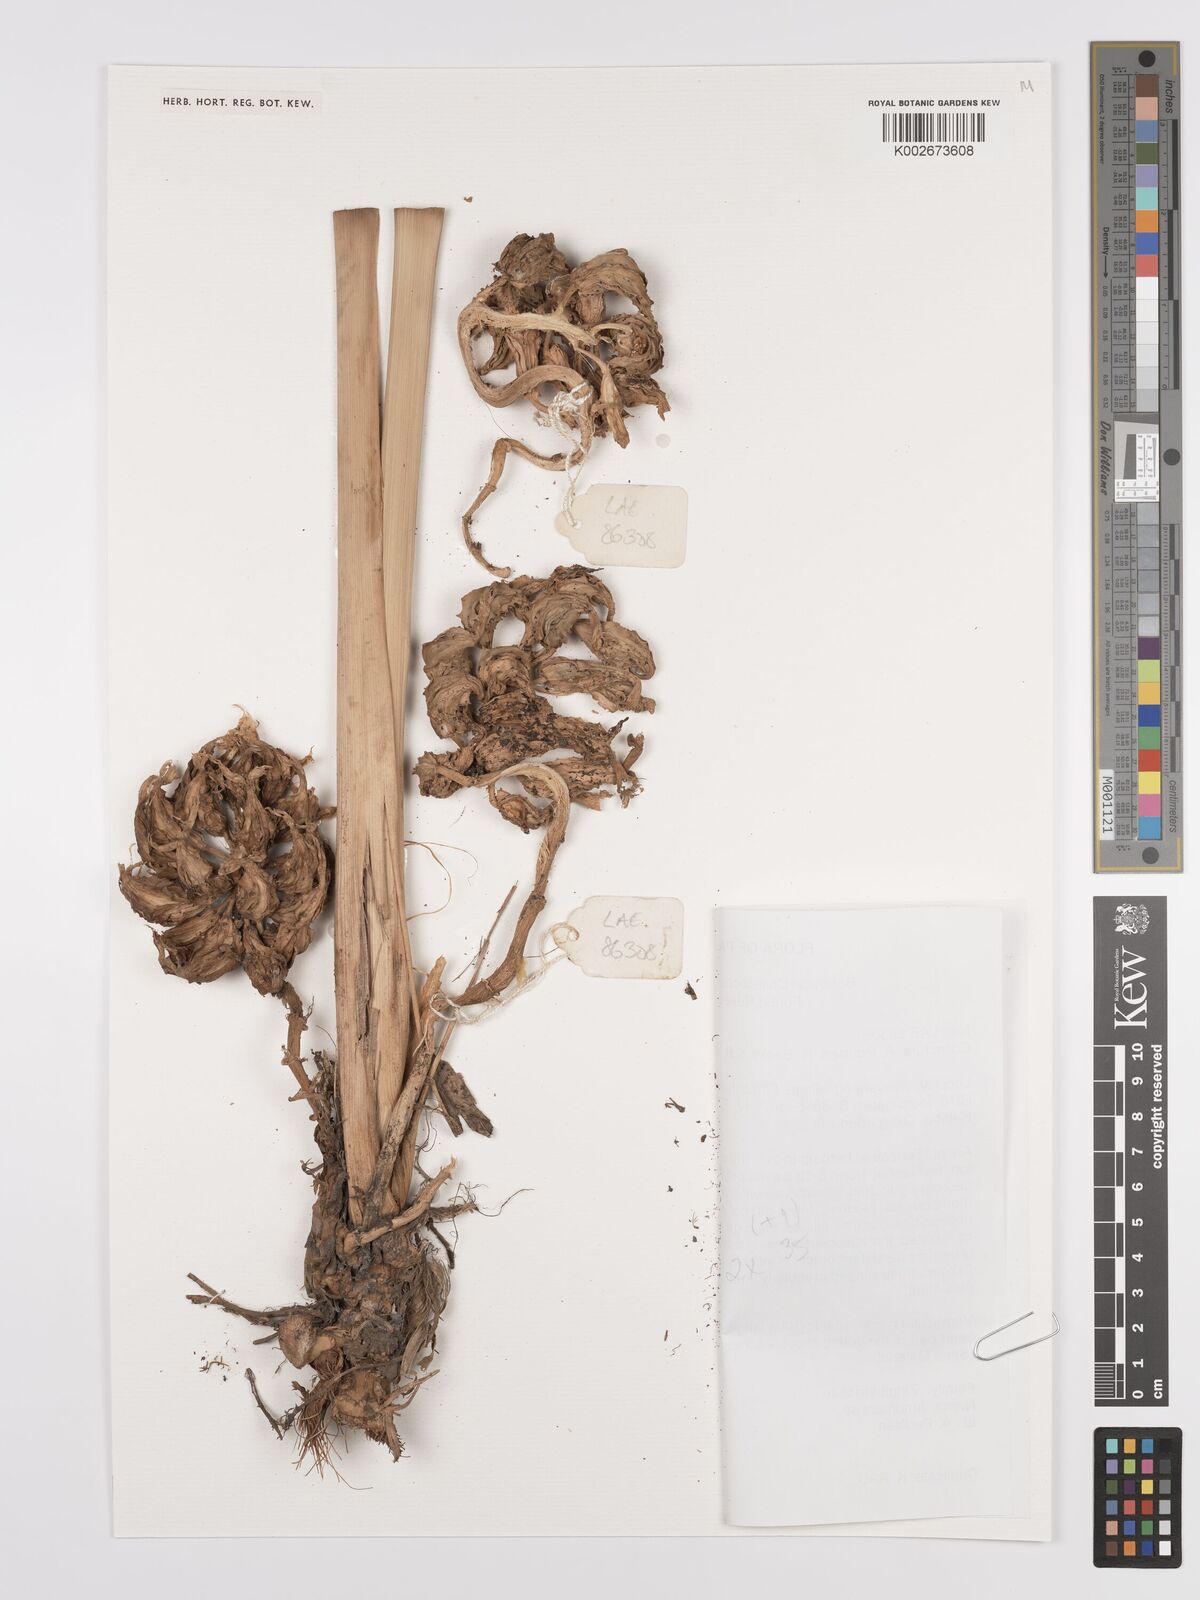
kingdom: Plantae
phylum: Tracheophyta
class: Liliopsida
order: Zingiberales
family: Zingiberaceae
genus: Amomum
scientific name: Amomum
